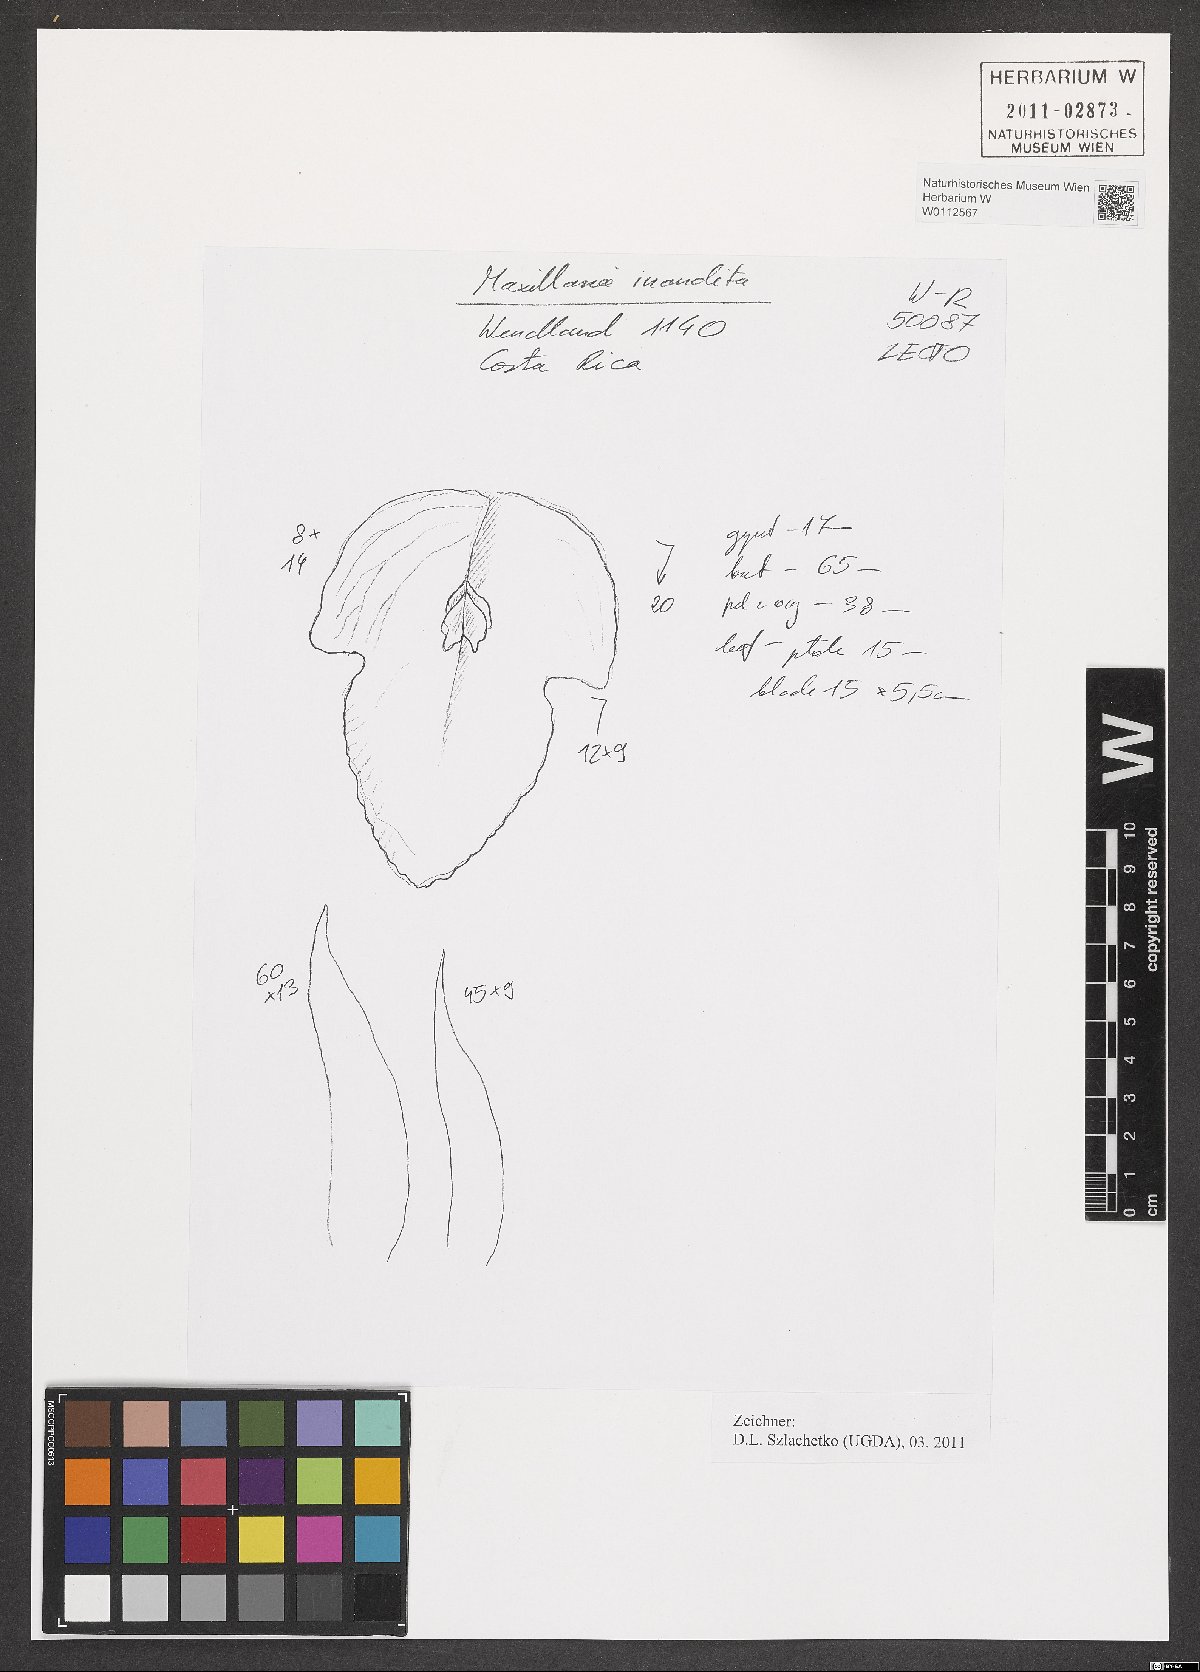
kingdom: Plantae
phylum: Tracheophyta
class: Liliopsida
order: Asparagales
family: Orchidaceae
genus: Maxillaria
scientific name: Maxillaria inaudita
